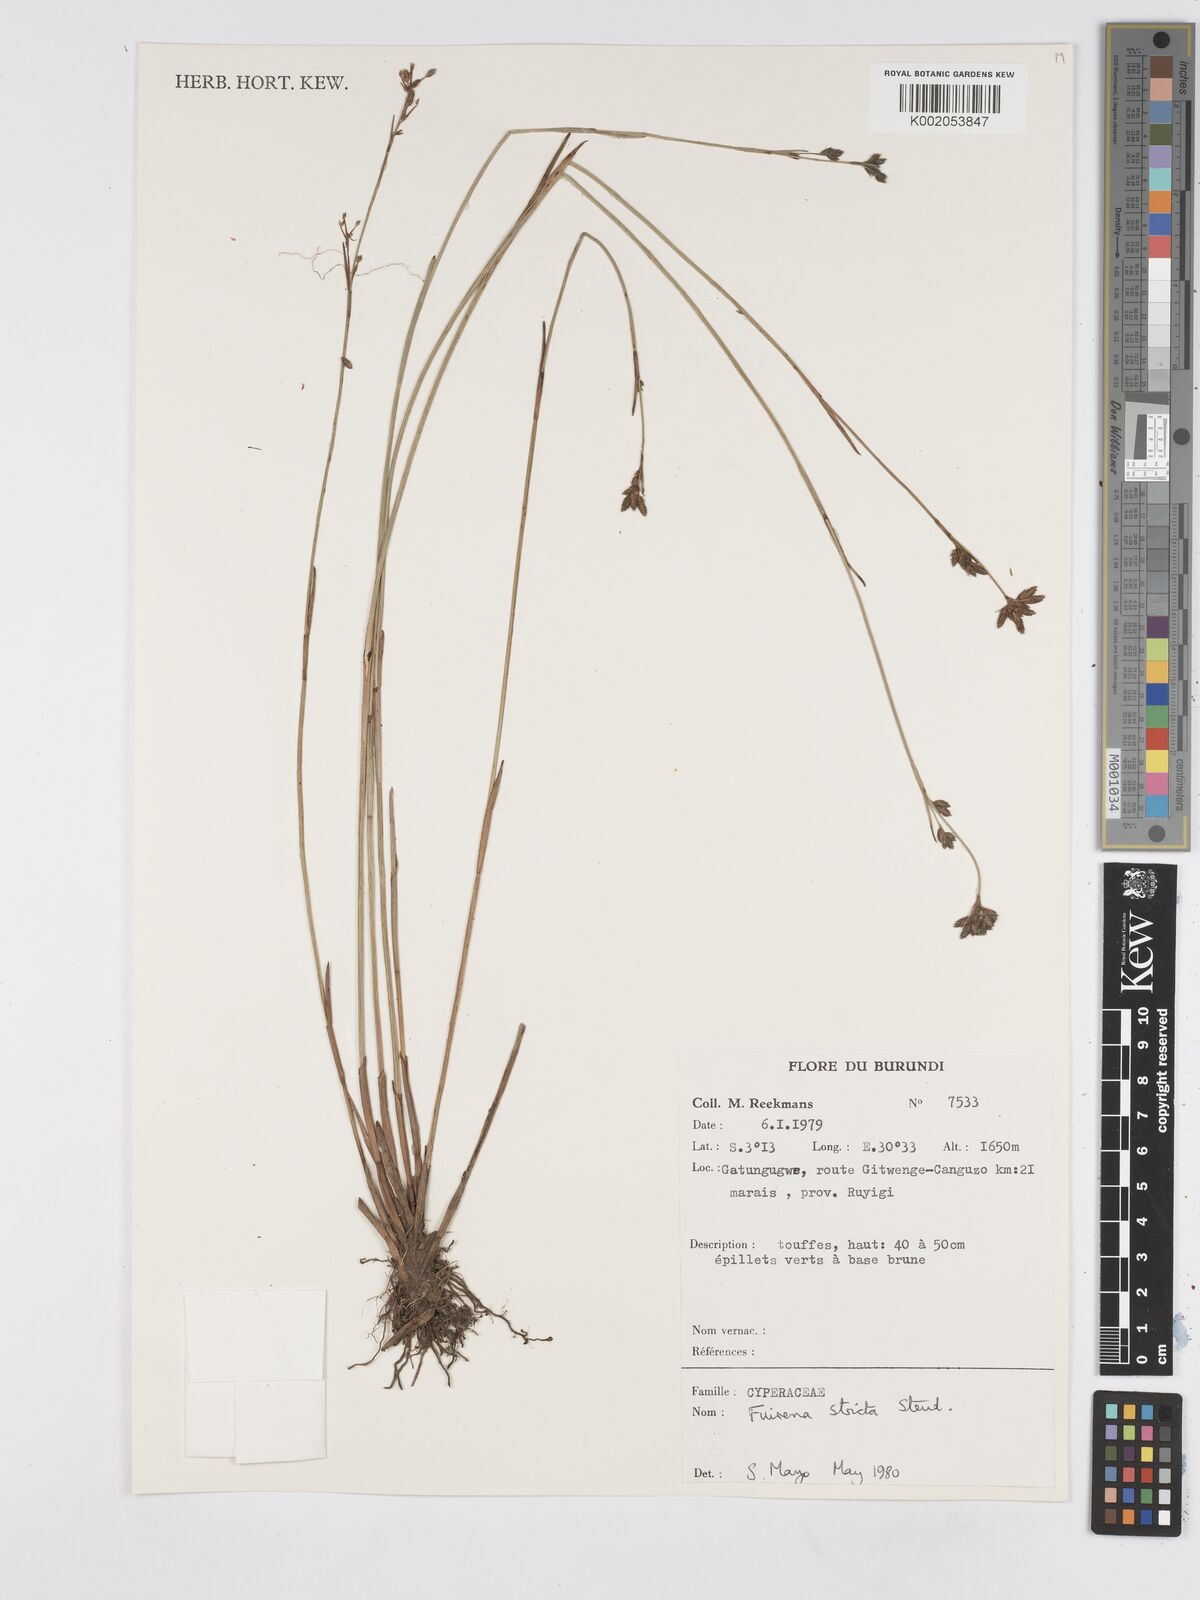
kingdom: Plantae
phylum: Tracheophyta
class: Liliopsida
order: Poales
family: Cyperaceae
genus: Fuirena
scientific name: Fuirena stricta
